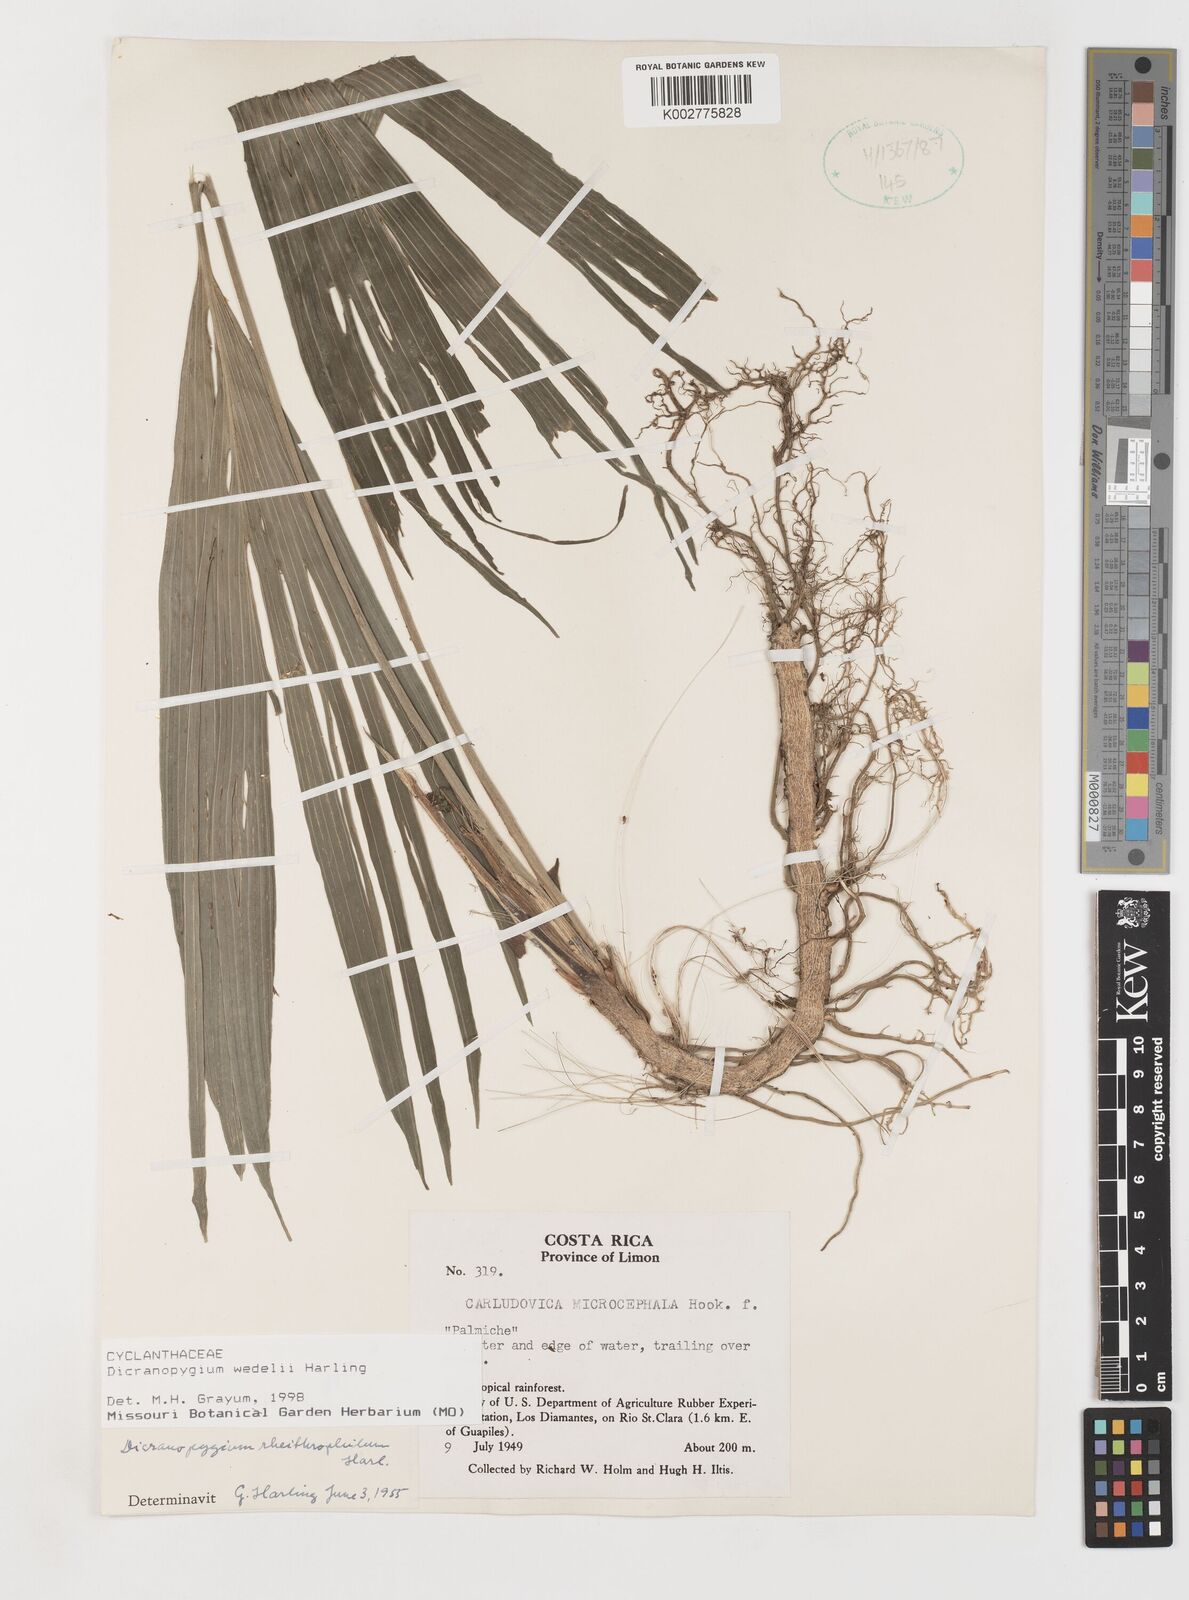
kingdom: Plantae
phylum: Tracheophyta
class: Liliopsida
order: Pandanales
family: Cyclanthaceae
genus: Dicranopygium
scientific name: Dicranopygium wedelii
